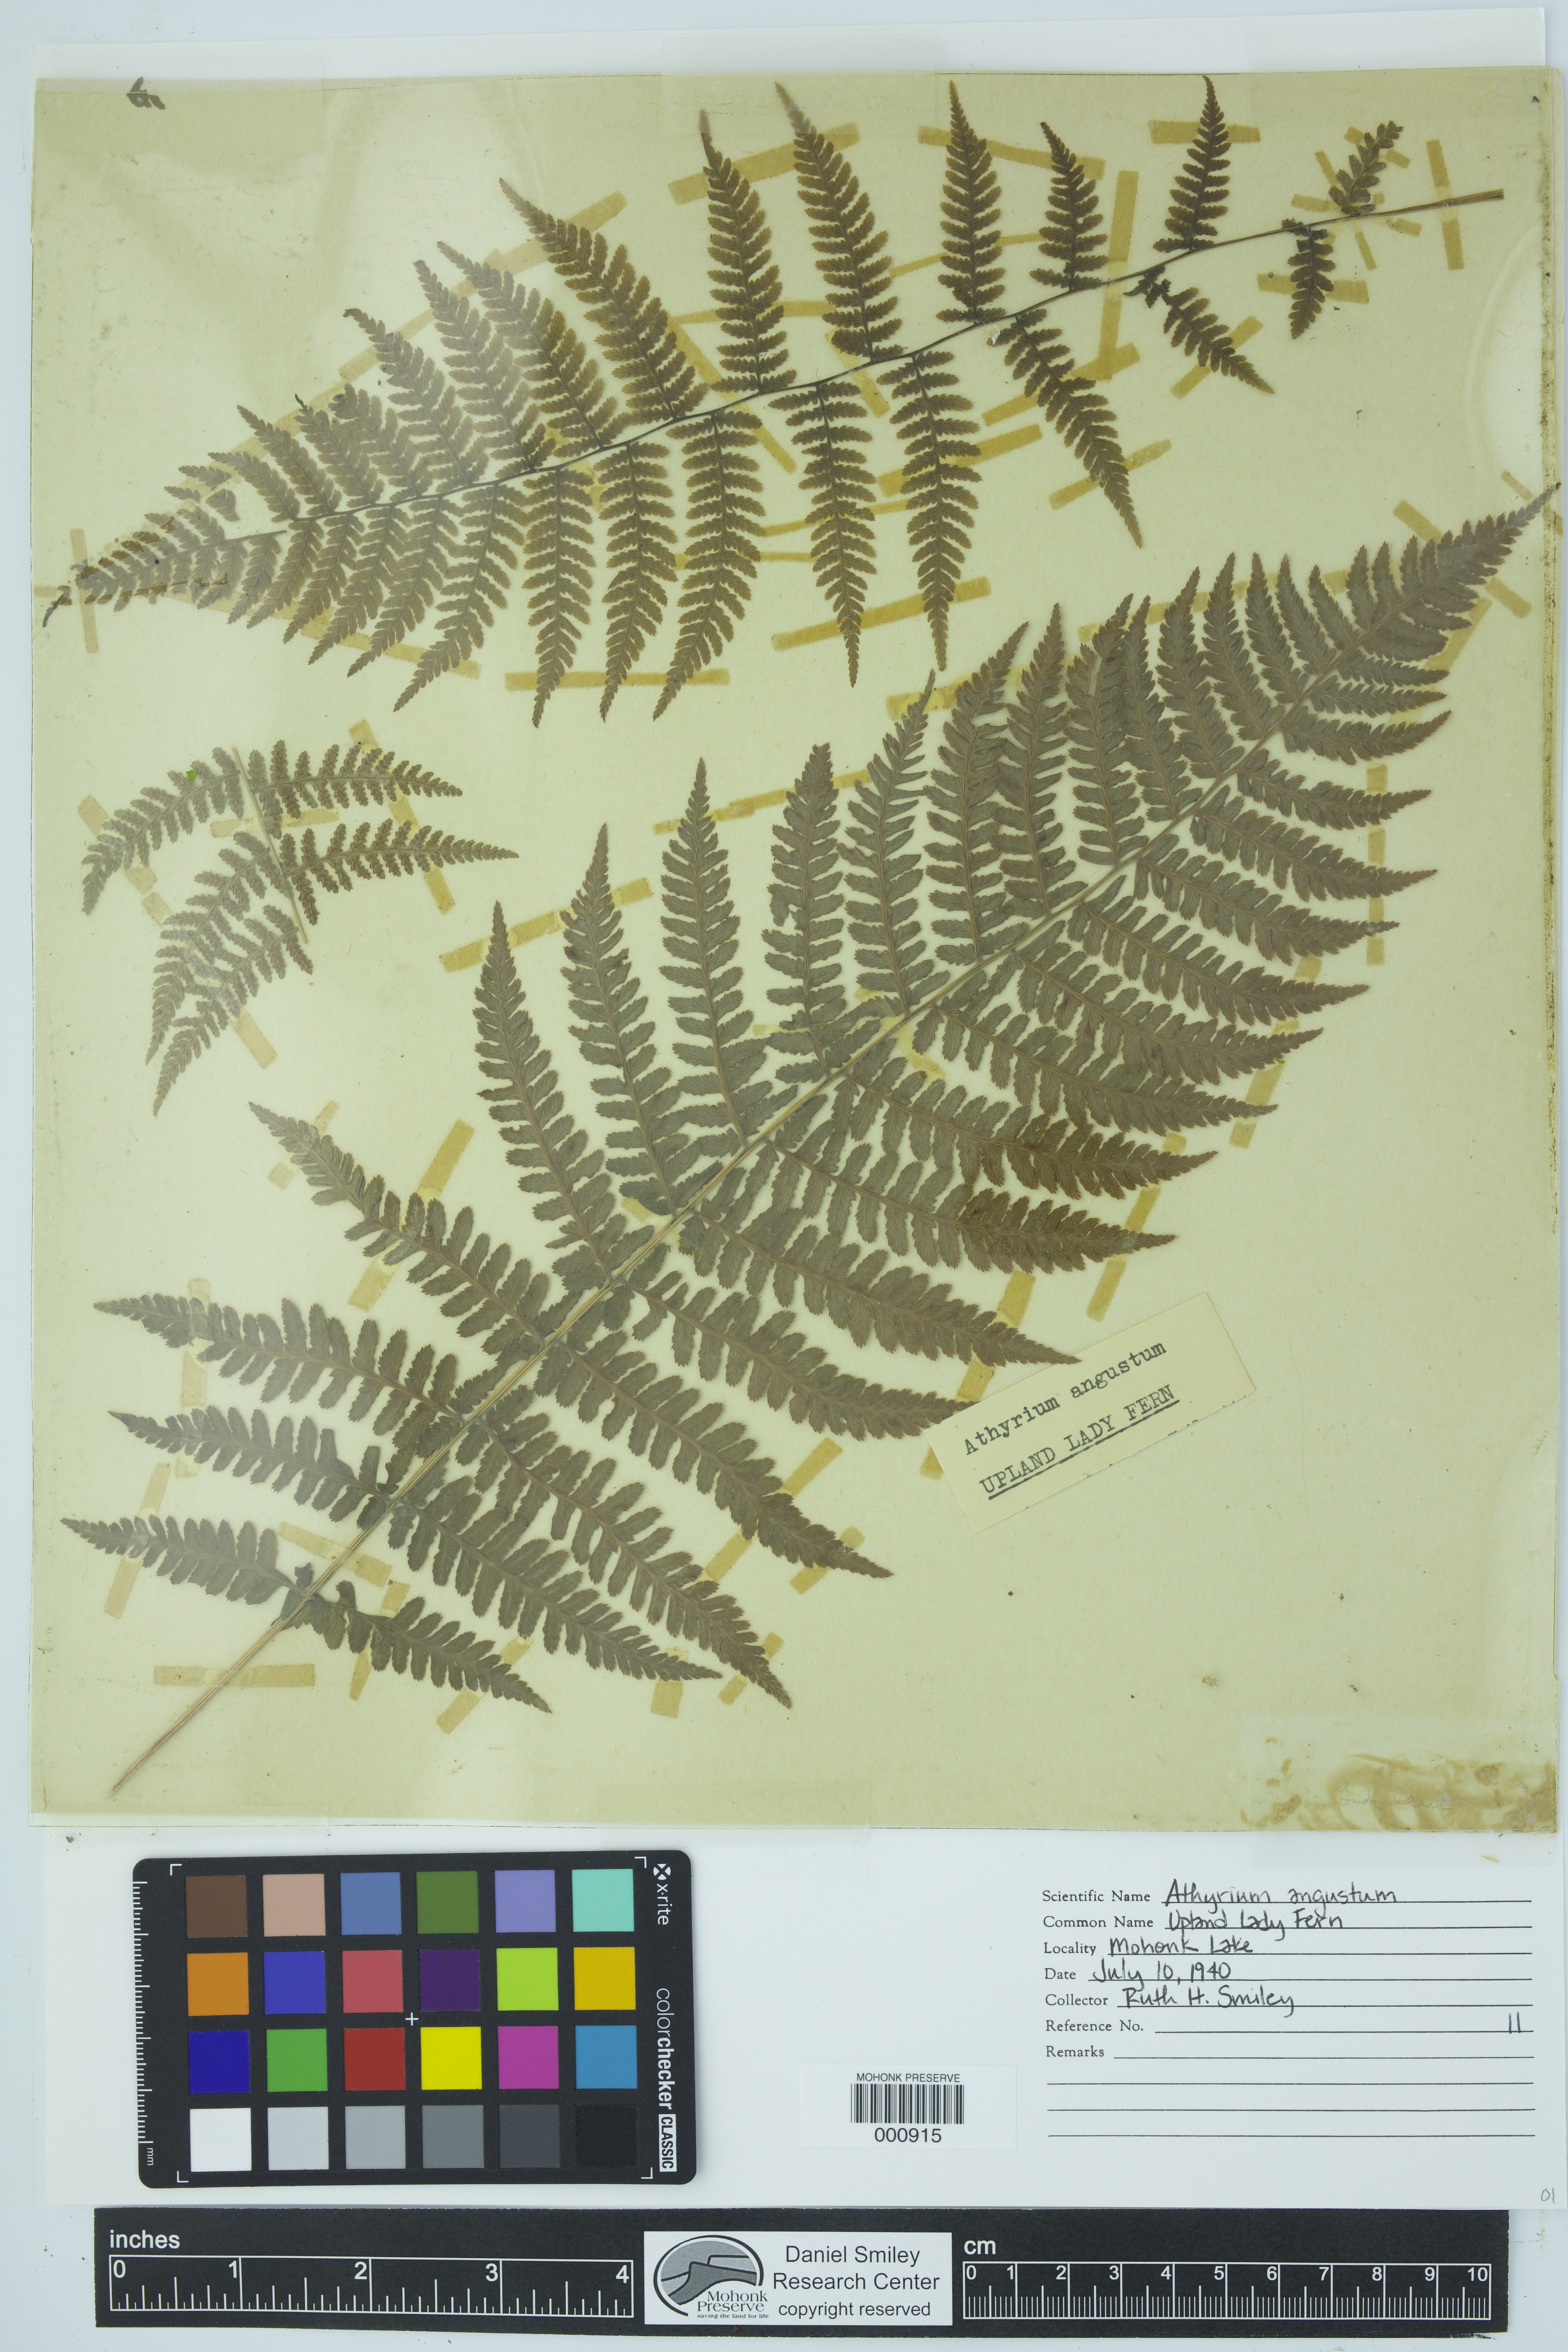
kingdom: Plantae
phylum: Tracheophyta
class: Polypodiopsida
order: Polypodiales
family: Athyriaceae
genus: Athyrium
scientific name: Athyrium filix-femina
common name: Lady fern
